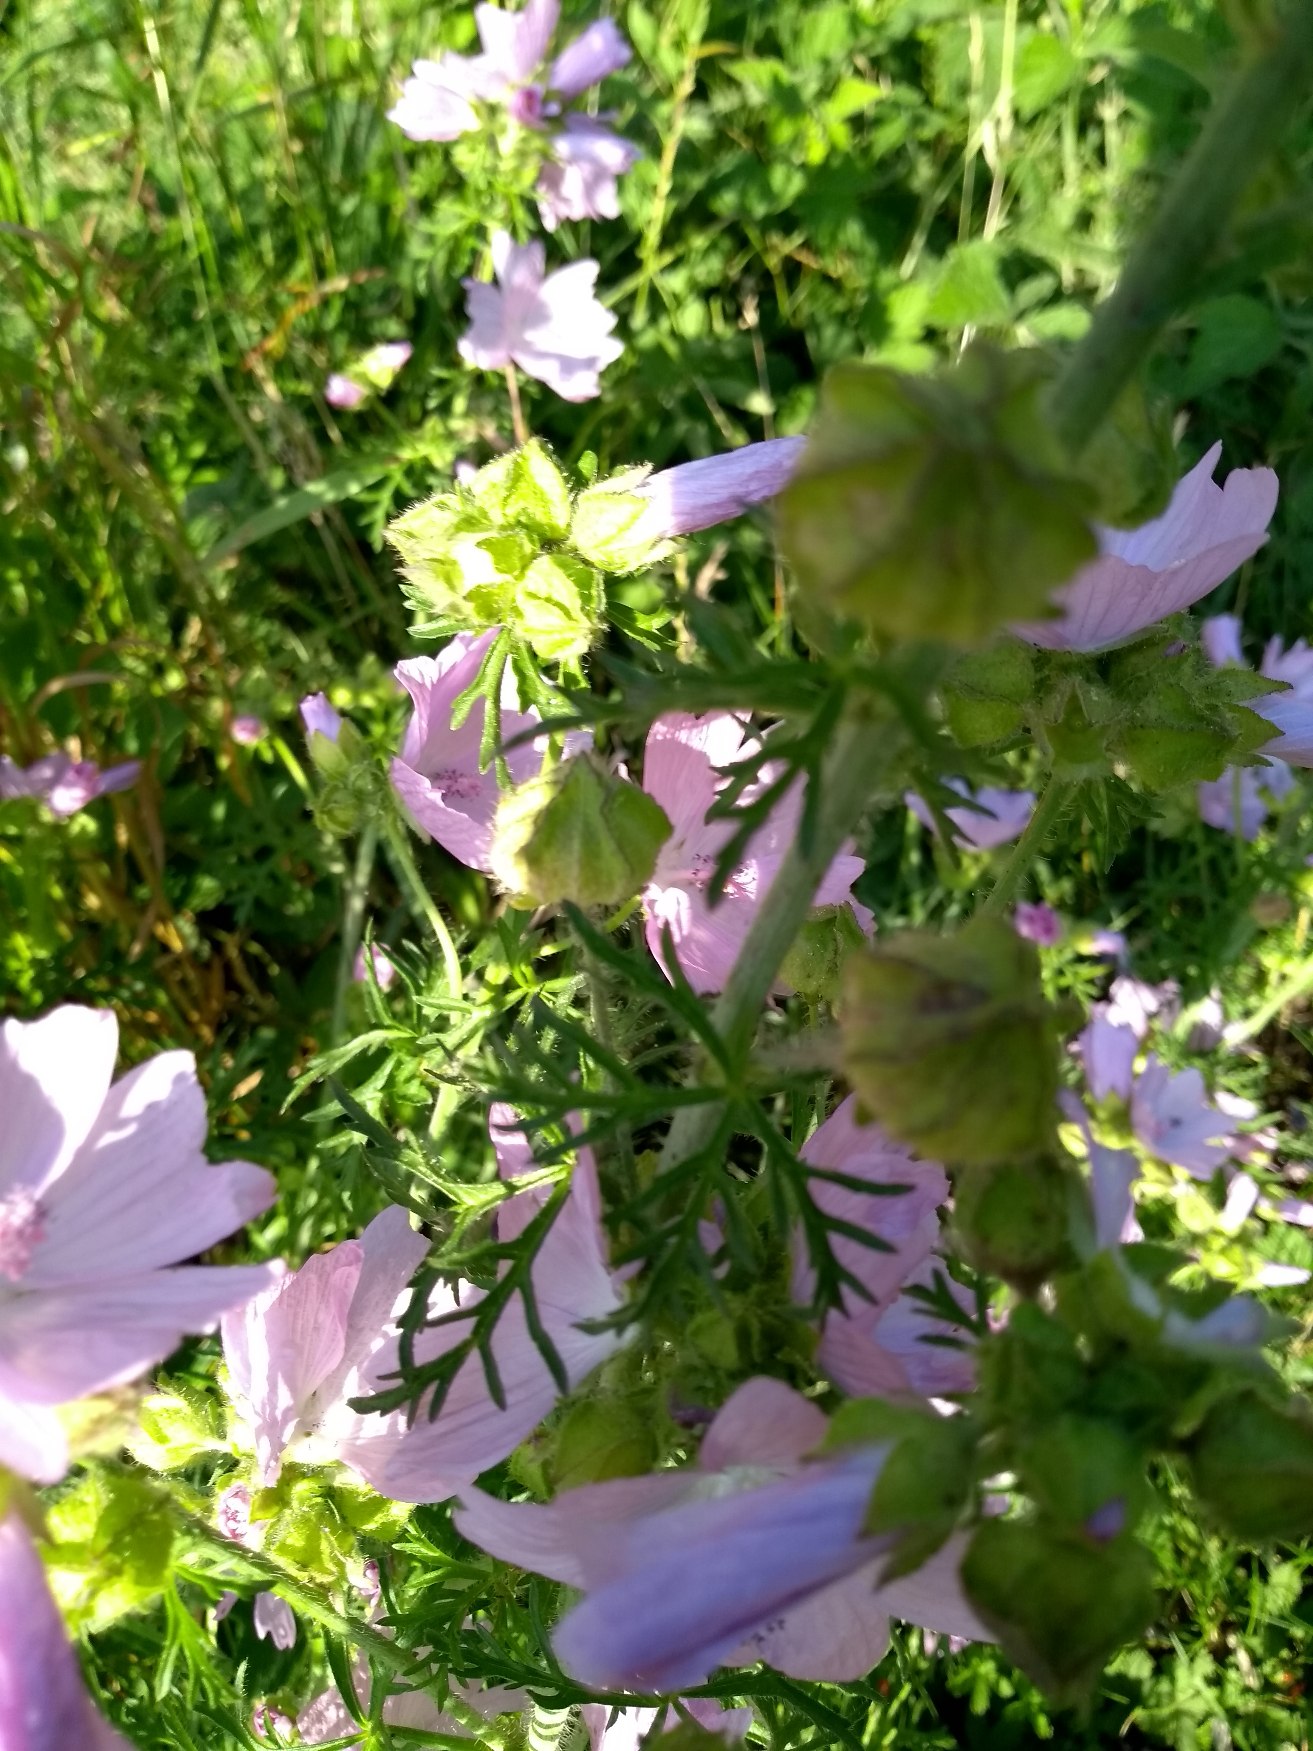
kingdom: Plantae
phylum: Tracheophyta
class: Magnoliopsida
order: Malvales
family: Malvaceae
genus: Malva
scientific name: Malva moschata
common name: Moskus-katost
